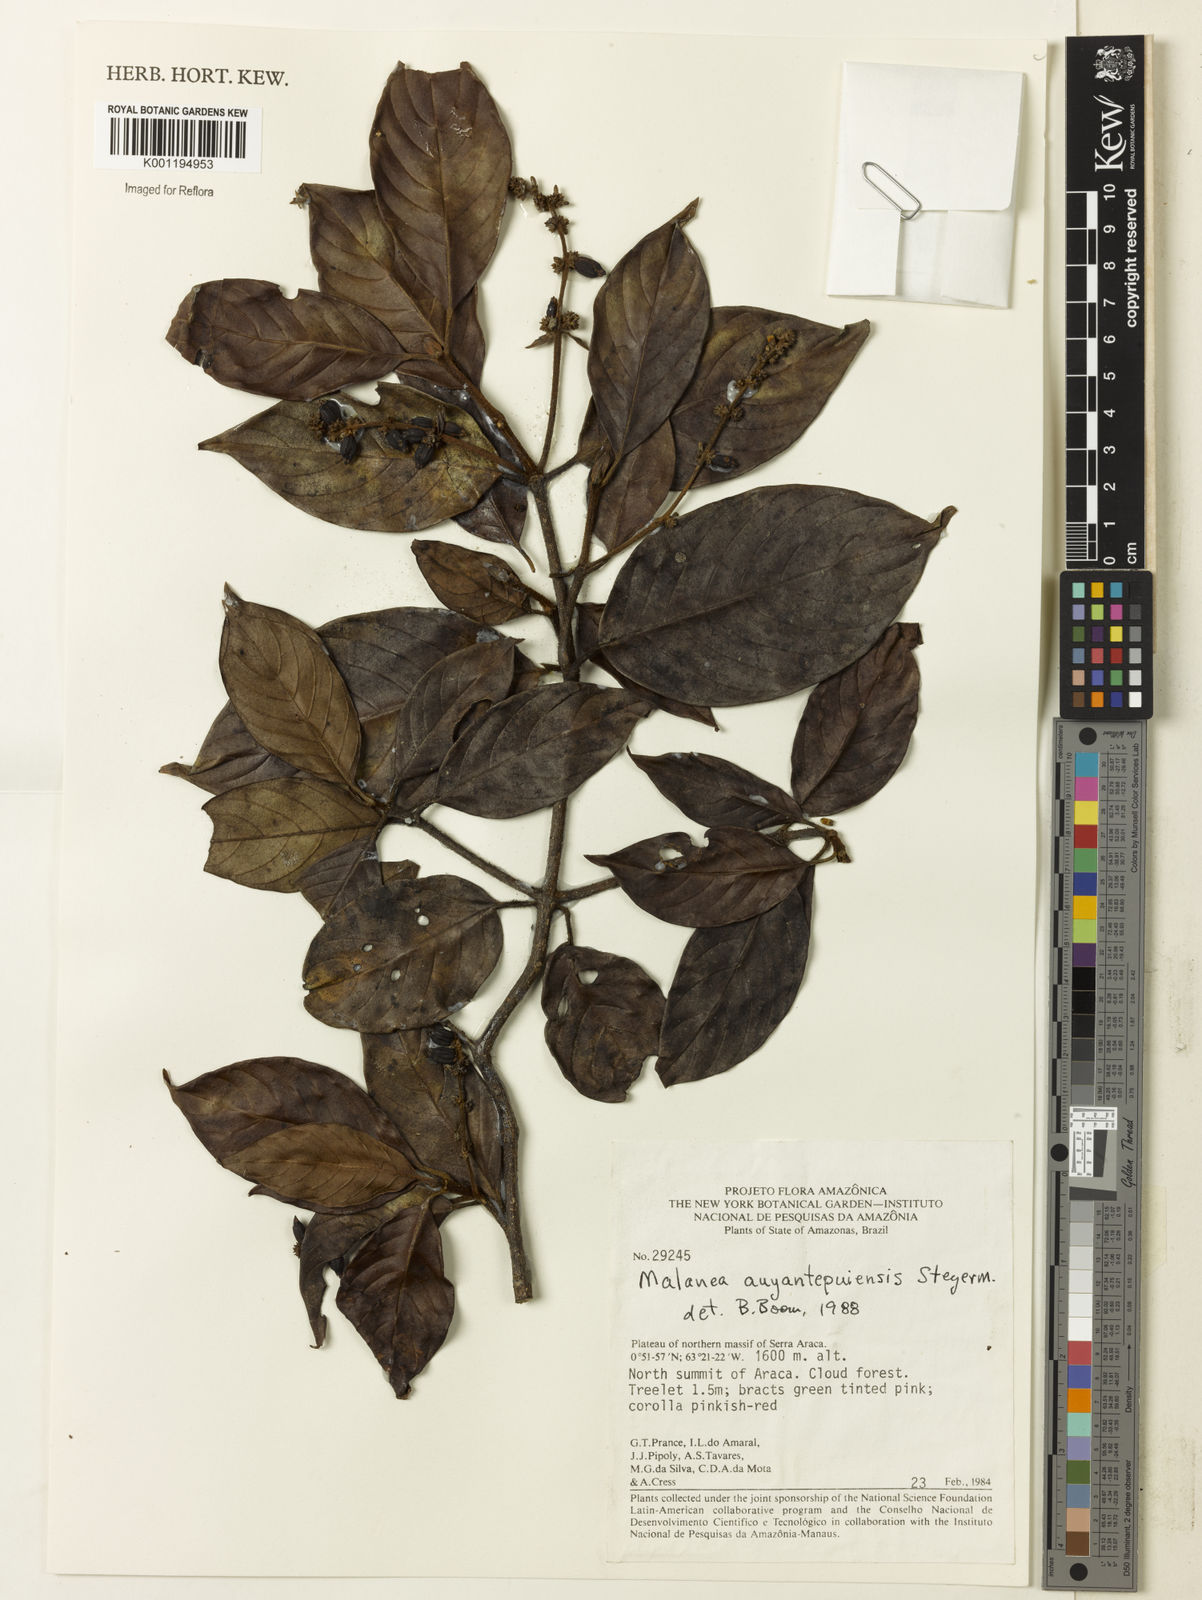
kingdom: Plantae
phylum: Tracheophyta
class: Magnoliopsida
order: Gentianales
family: Rubiaceae
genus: Malanea
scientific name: Malanea auyantepuiensis
